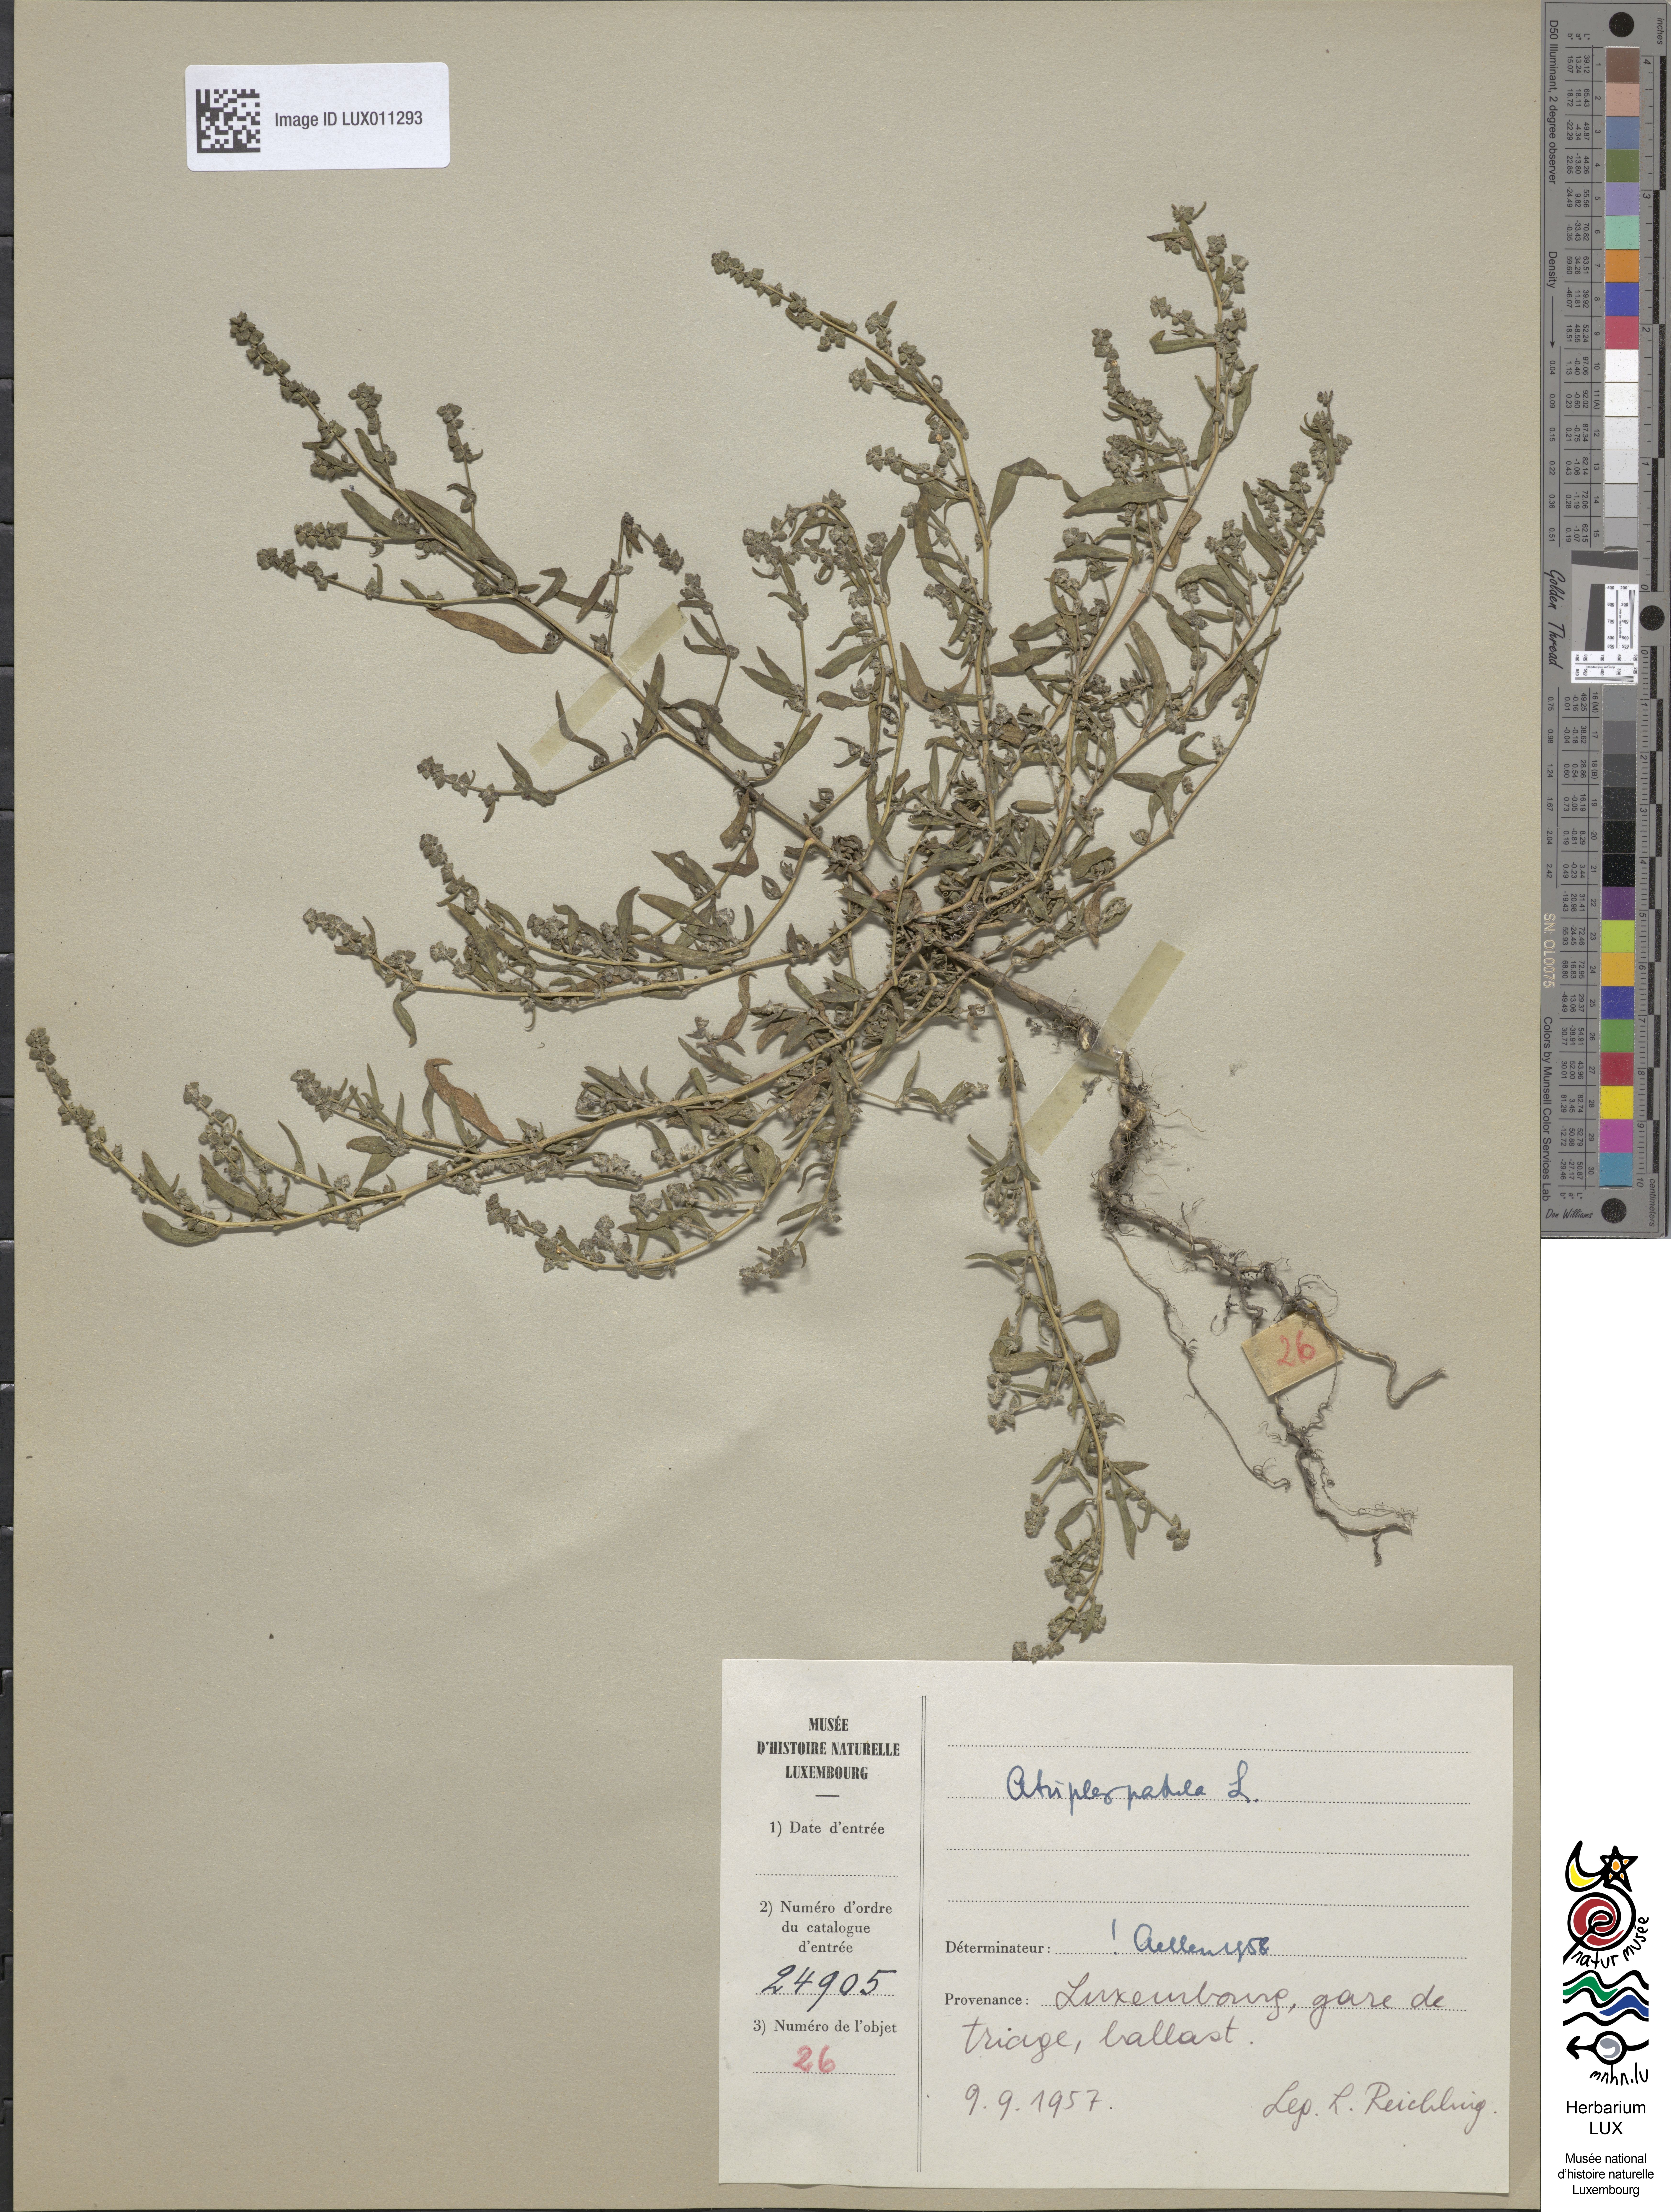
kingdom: Plantae
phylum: Tracheophyta
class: Magnoliopsida
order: Caryophyllales
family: Amaranthaceae
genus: Atriplex
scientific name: Atriplex patula
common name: Common orache
